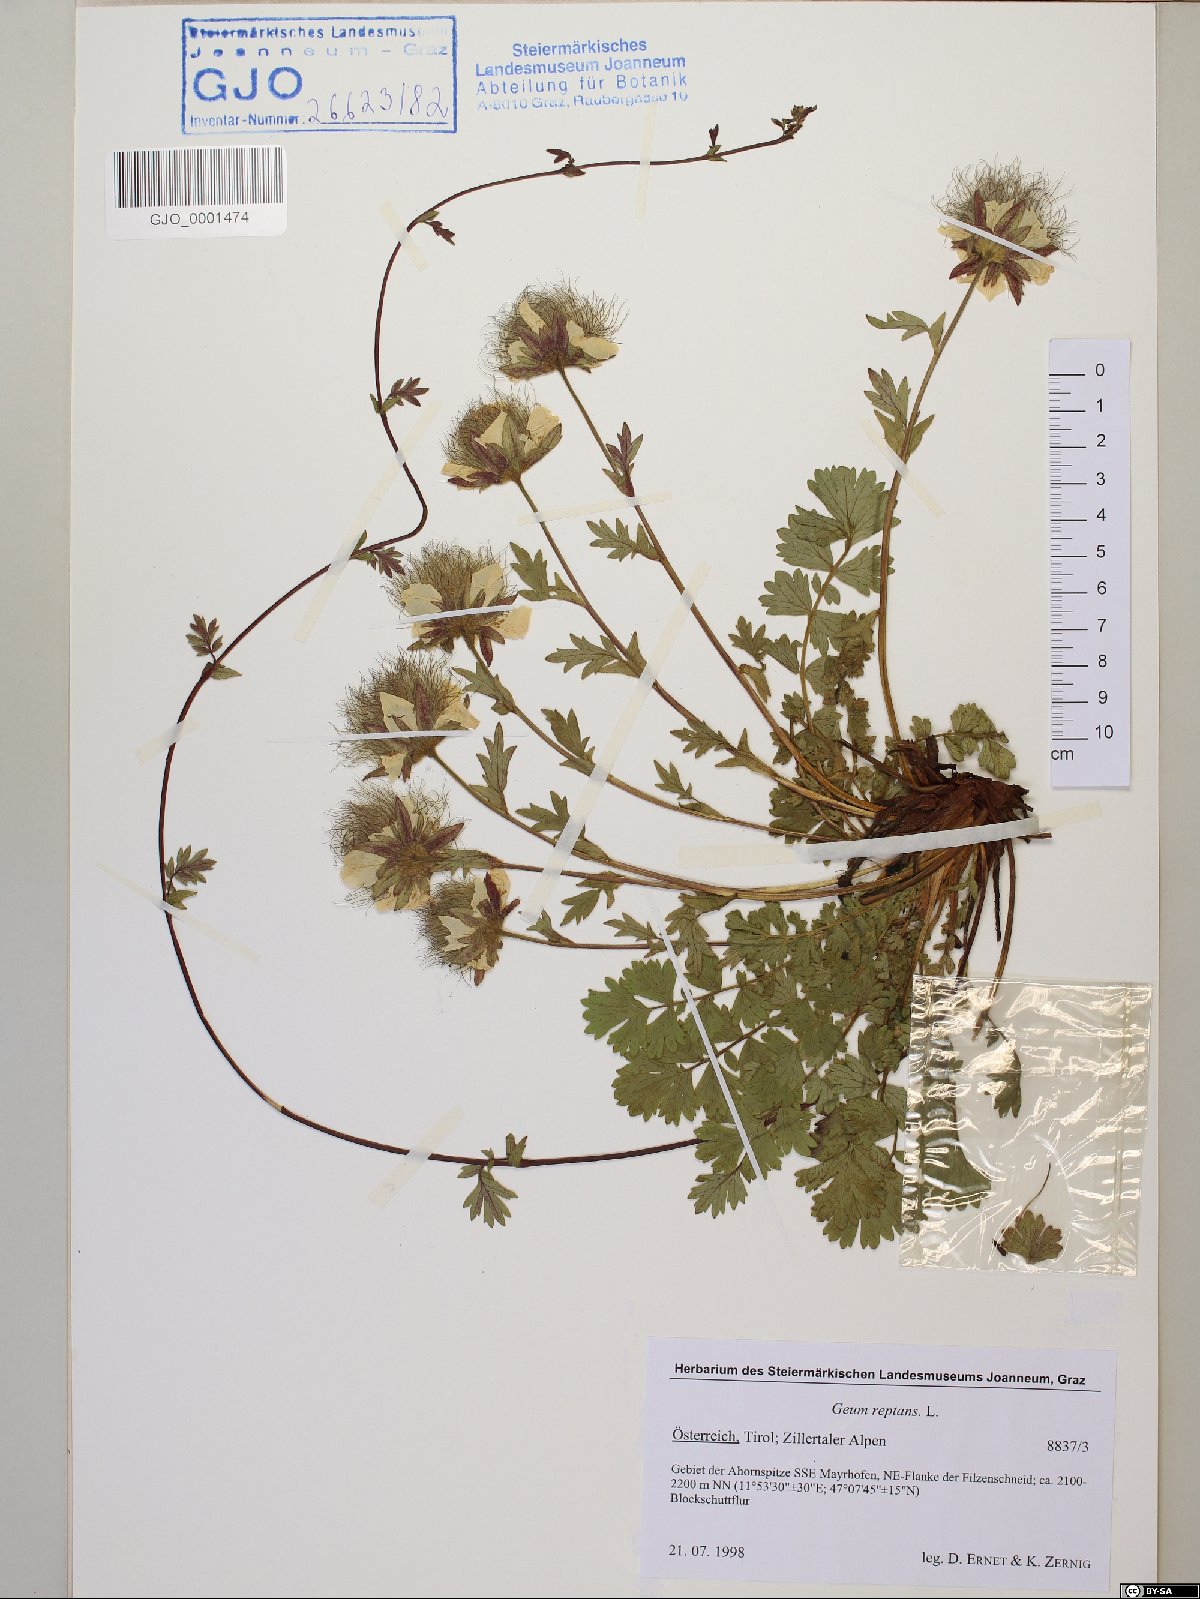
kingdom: Plantae
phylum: Tracheophyta
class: Magnoliopsida
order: Rosales
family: Rosaceae
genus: Geum
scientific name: Geum reptans
